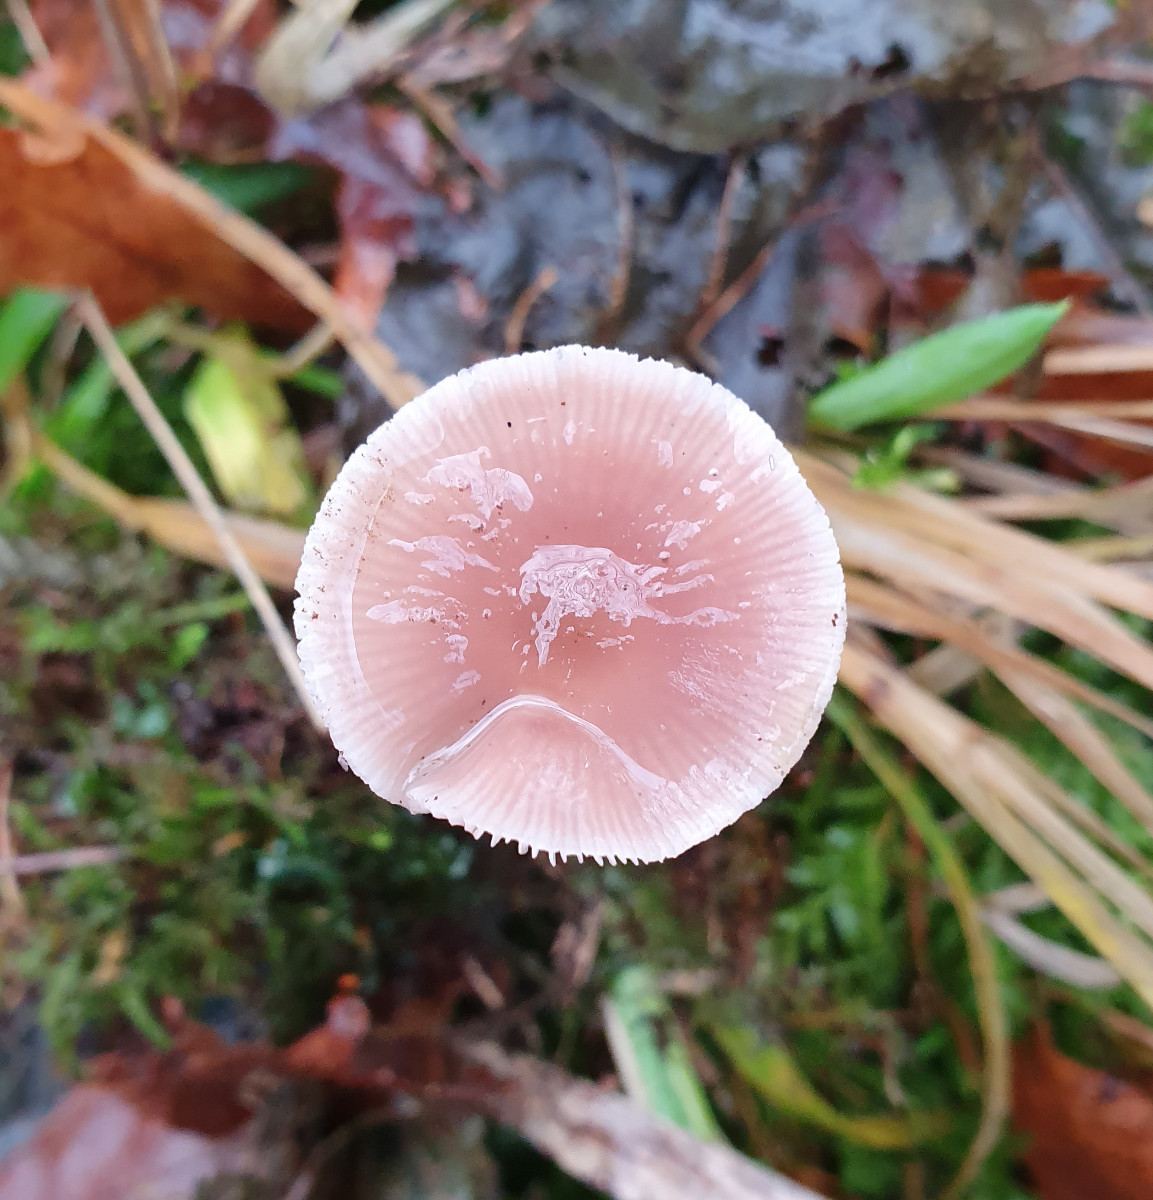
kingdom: Fungi
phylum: Basidiomycota
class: Agaricomycetes
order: Agaricales
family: Mycenaceae
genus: Mycena
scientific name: Mycena rosea
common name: rosa huesvamp
